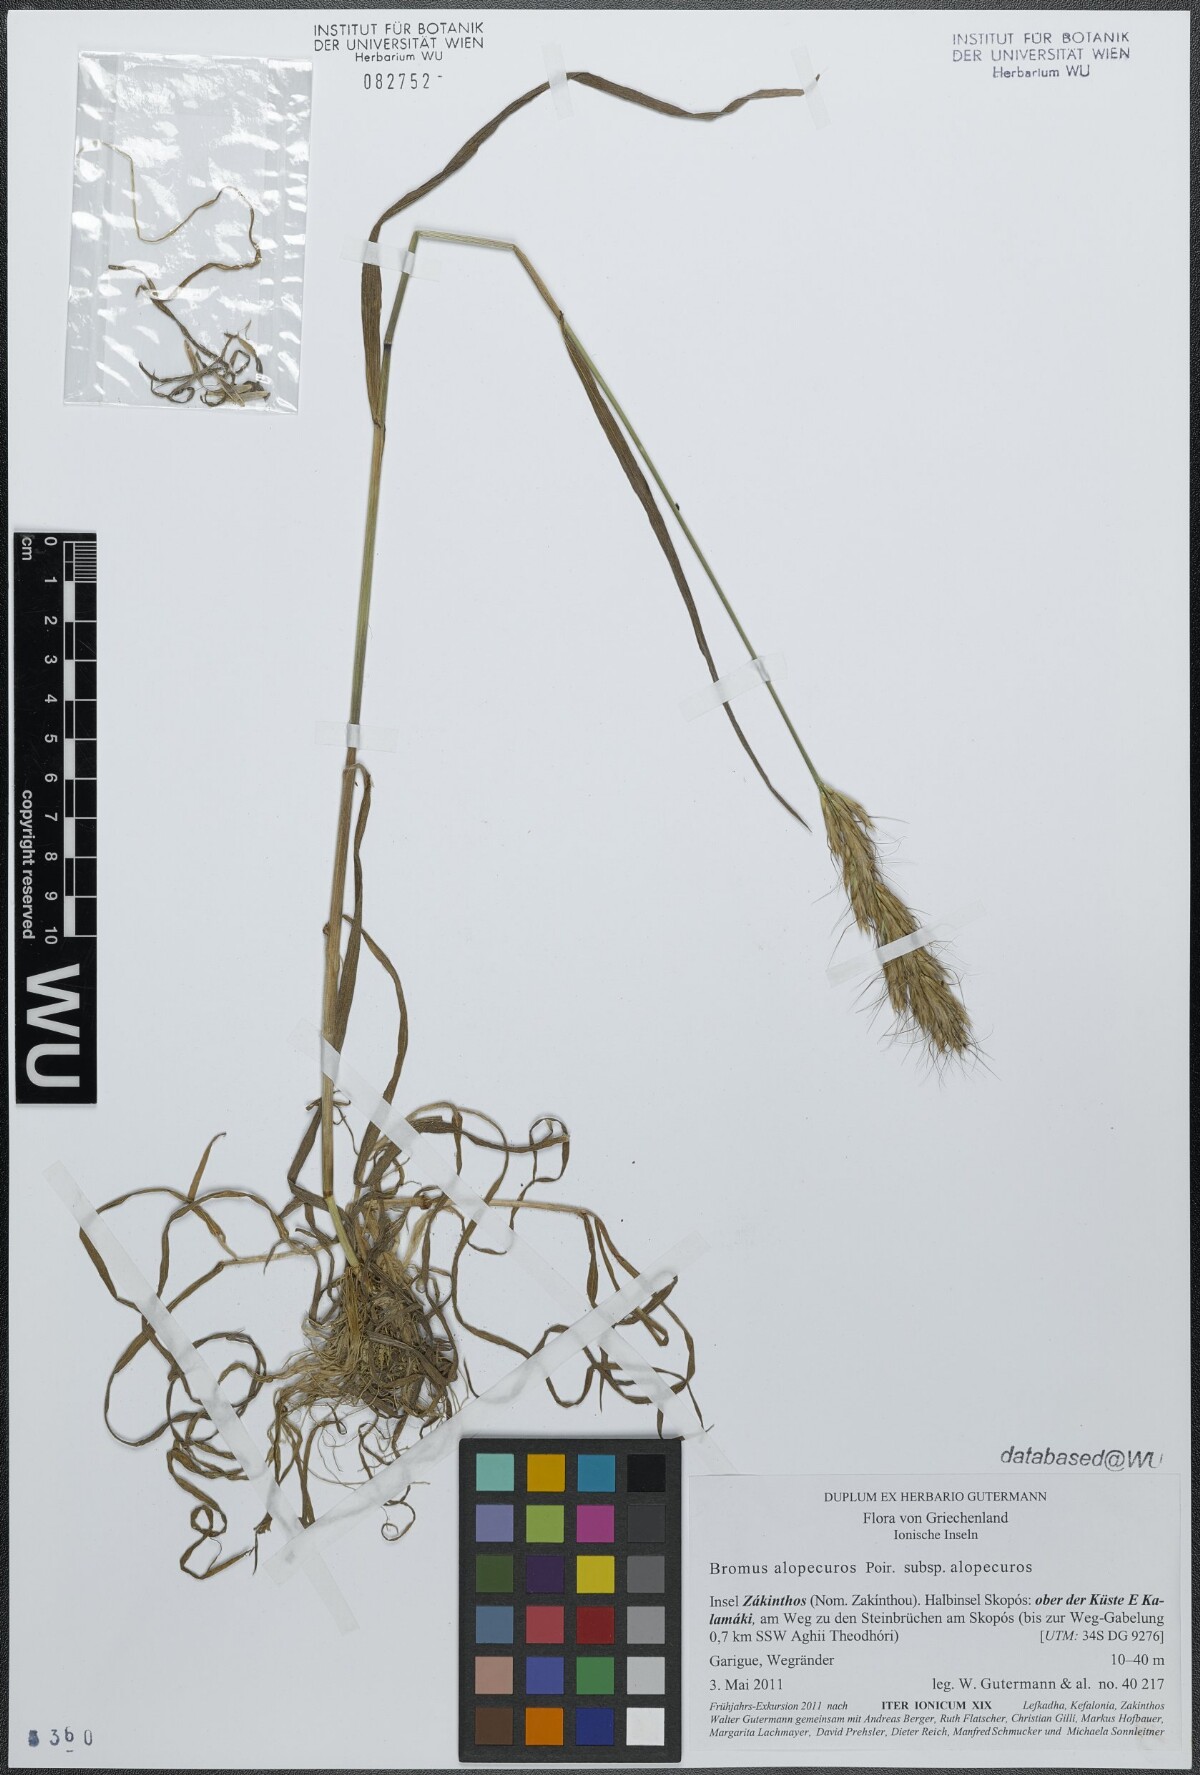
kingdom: Plantae
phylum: Tracheophyta
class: Liliopsida
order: Poales
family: Poaceae
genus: Bromus
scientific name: Bromus alopecuros
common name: Weedy brome
